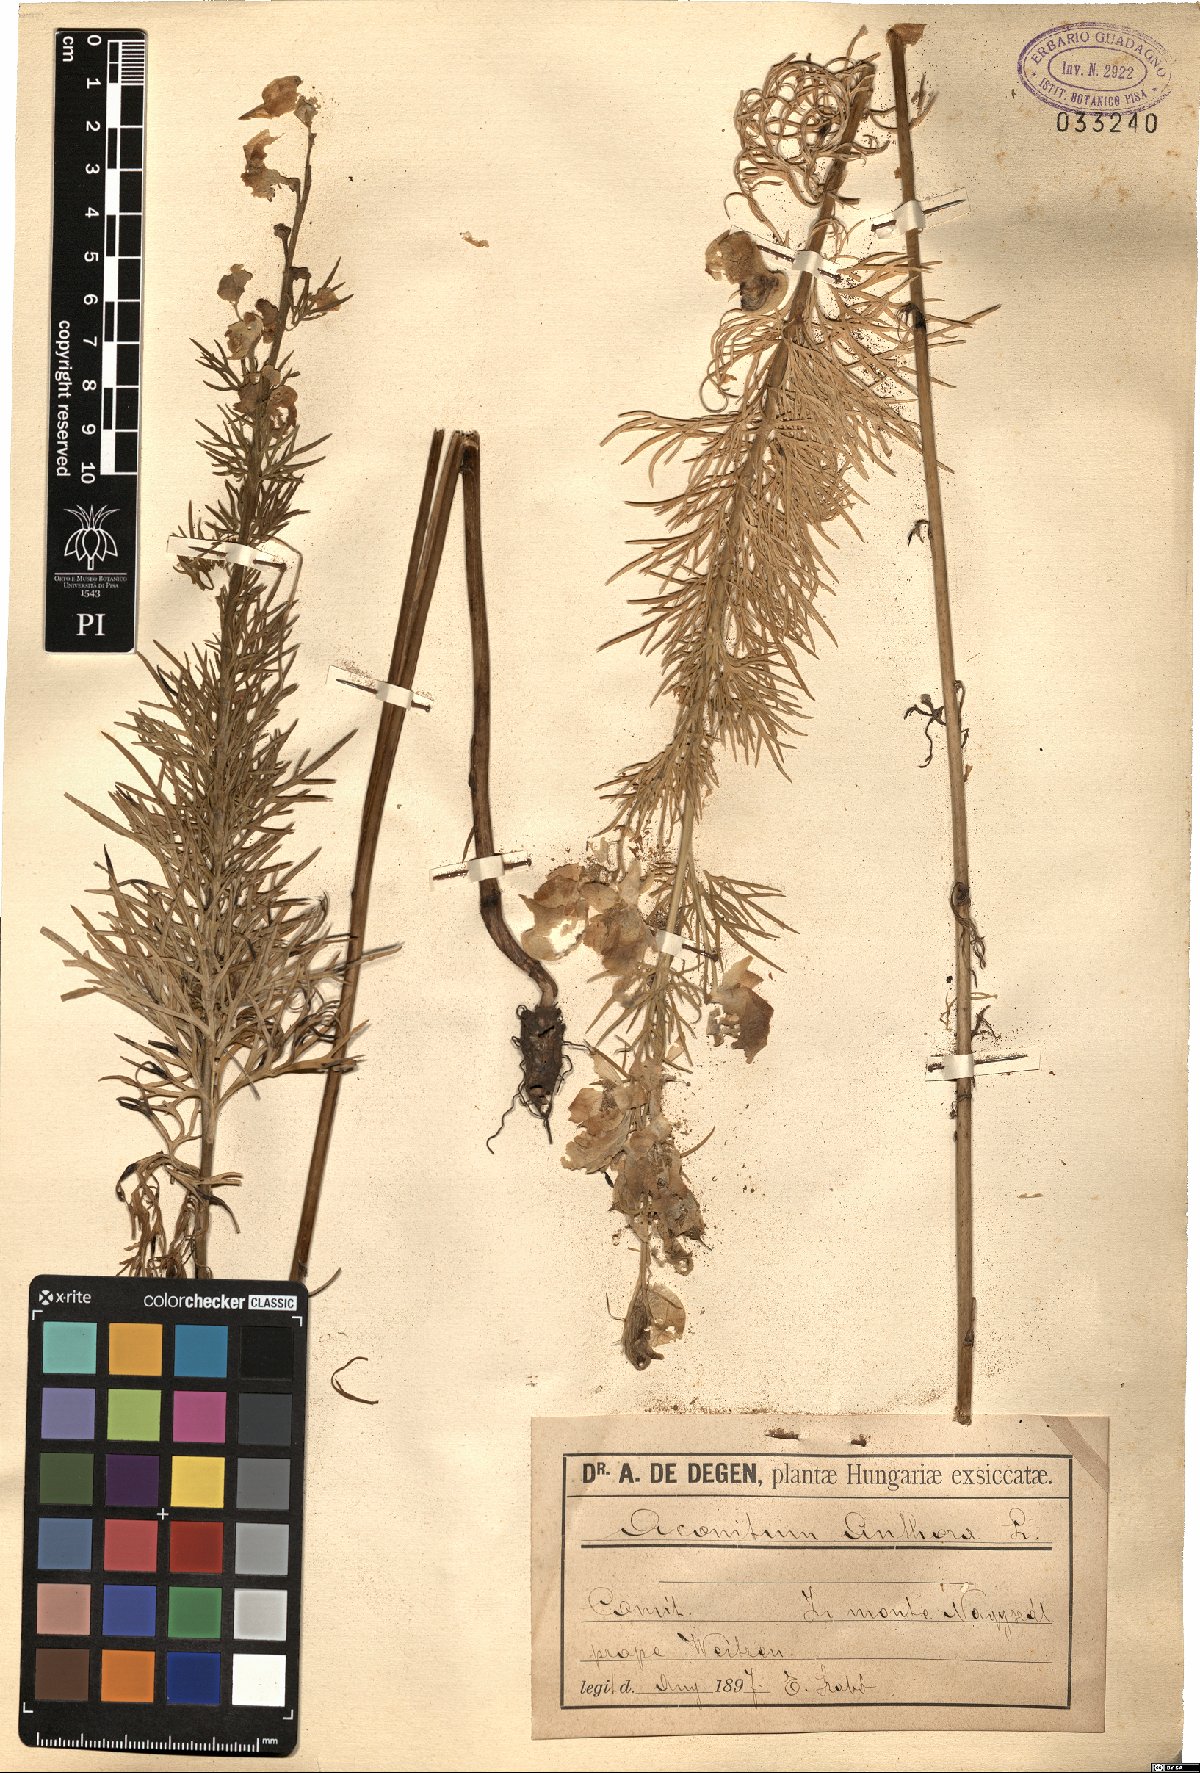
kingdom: Plantae
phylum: Tracheophyta
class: Magnoliopsida
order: Ranunculales
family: Ranunculaceae
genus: Aconitum
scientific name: Aconitum anthora
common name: Yellow monkshood
